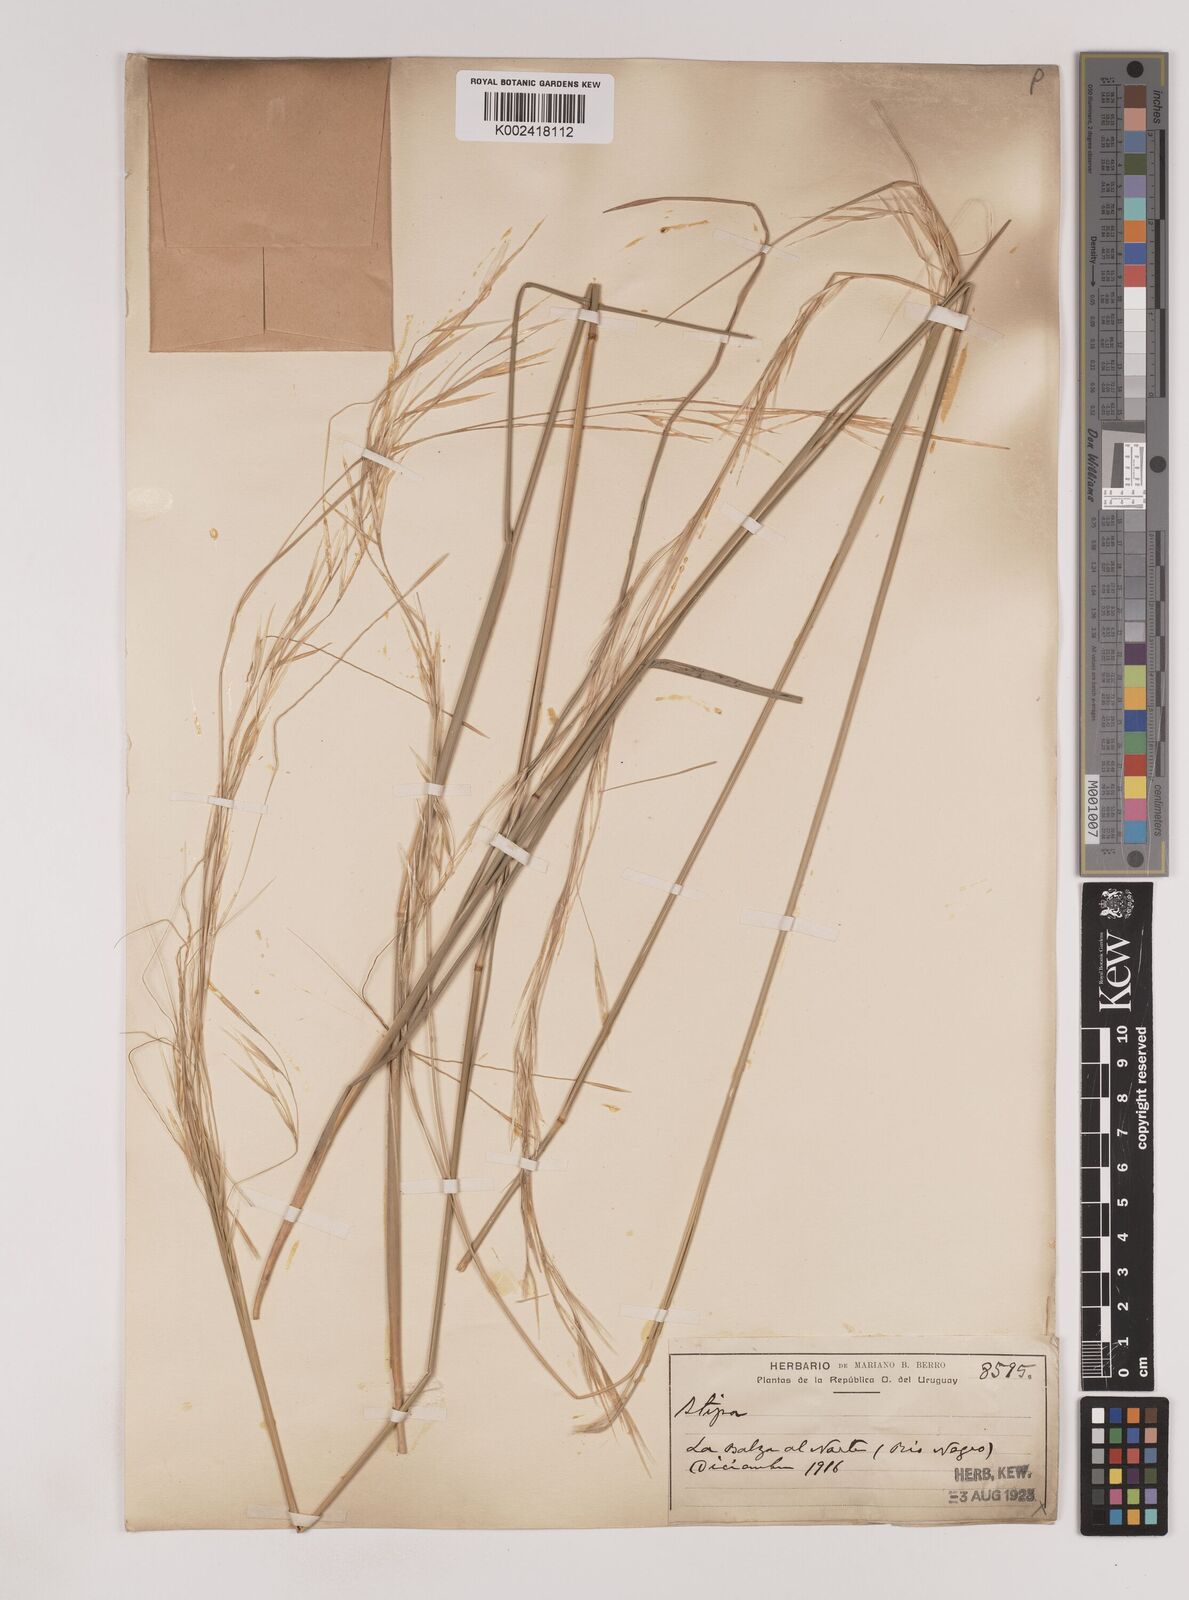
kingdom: Plantae
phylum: Tracheophyta
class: Liliopsida
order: Poales
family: Poaceae
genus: Nassella
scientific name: Nassella
